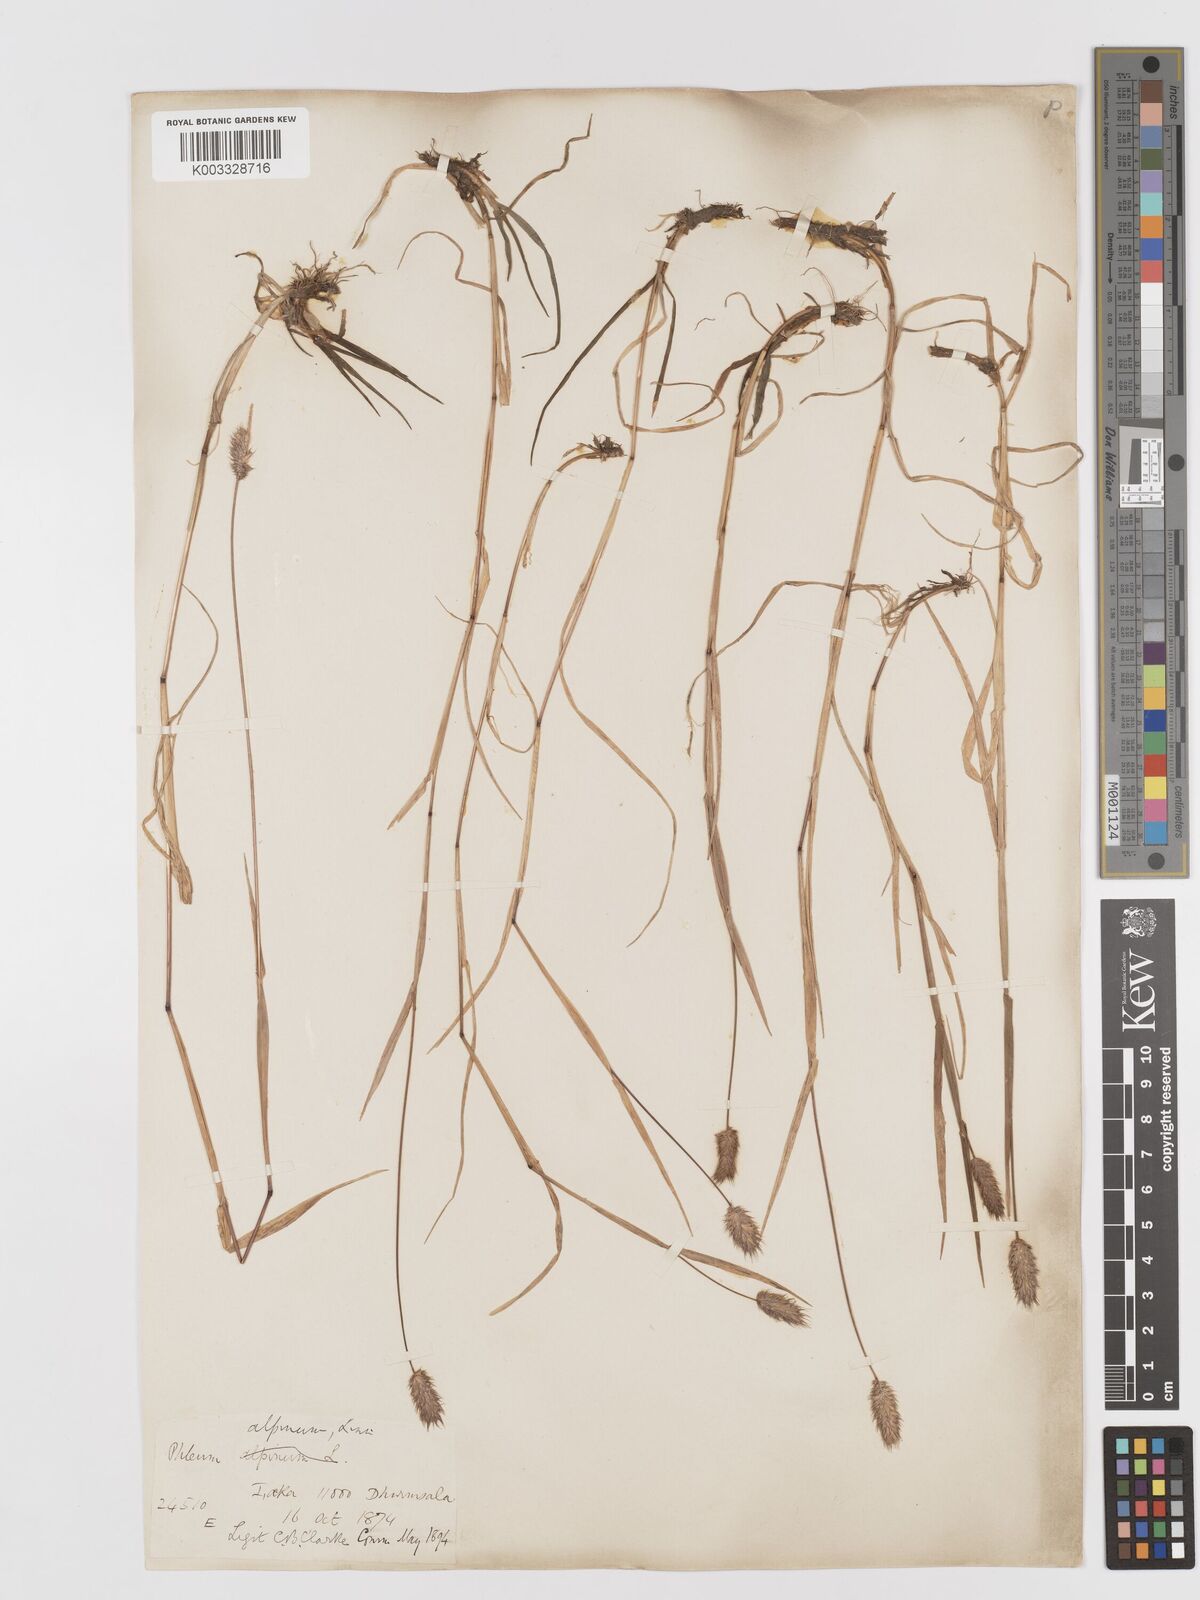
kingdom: Plantae
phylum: Tracheophyta
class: Liliopsida
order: Poales
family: Poaceae
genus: Phleum
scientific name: Phleum alpinum
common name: Alpine cat's-tail
